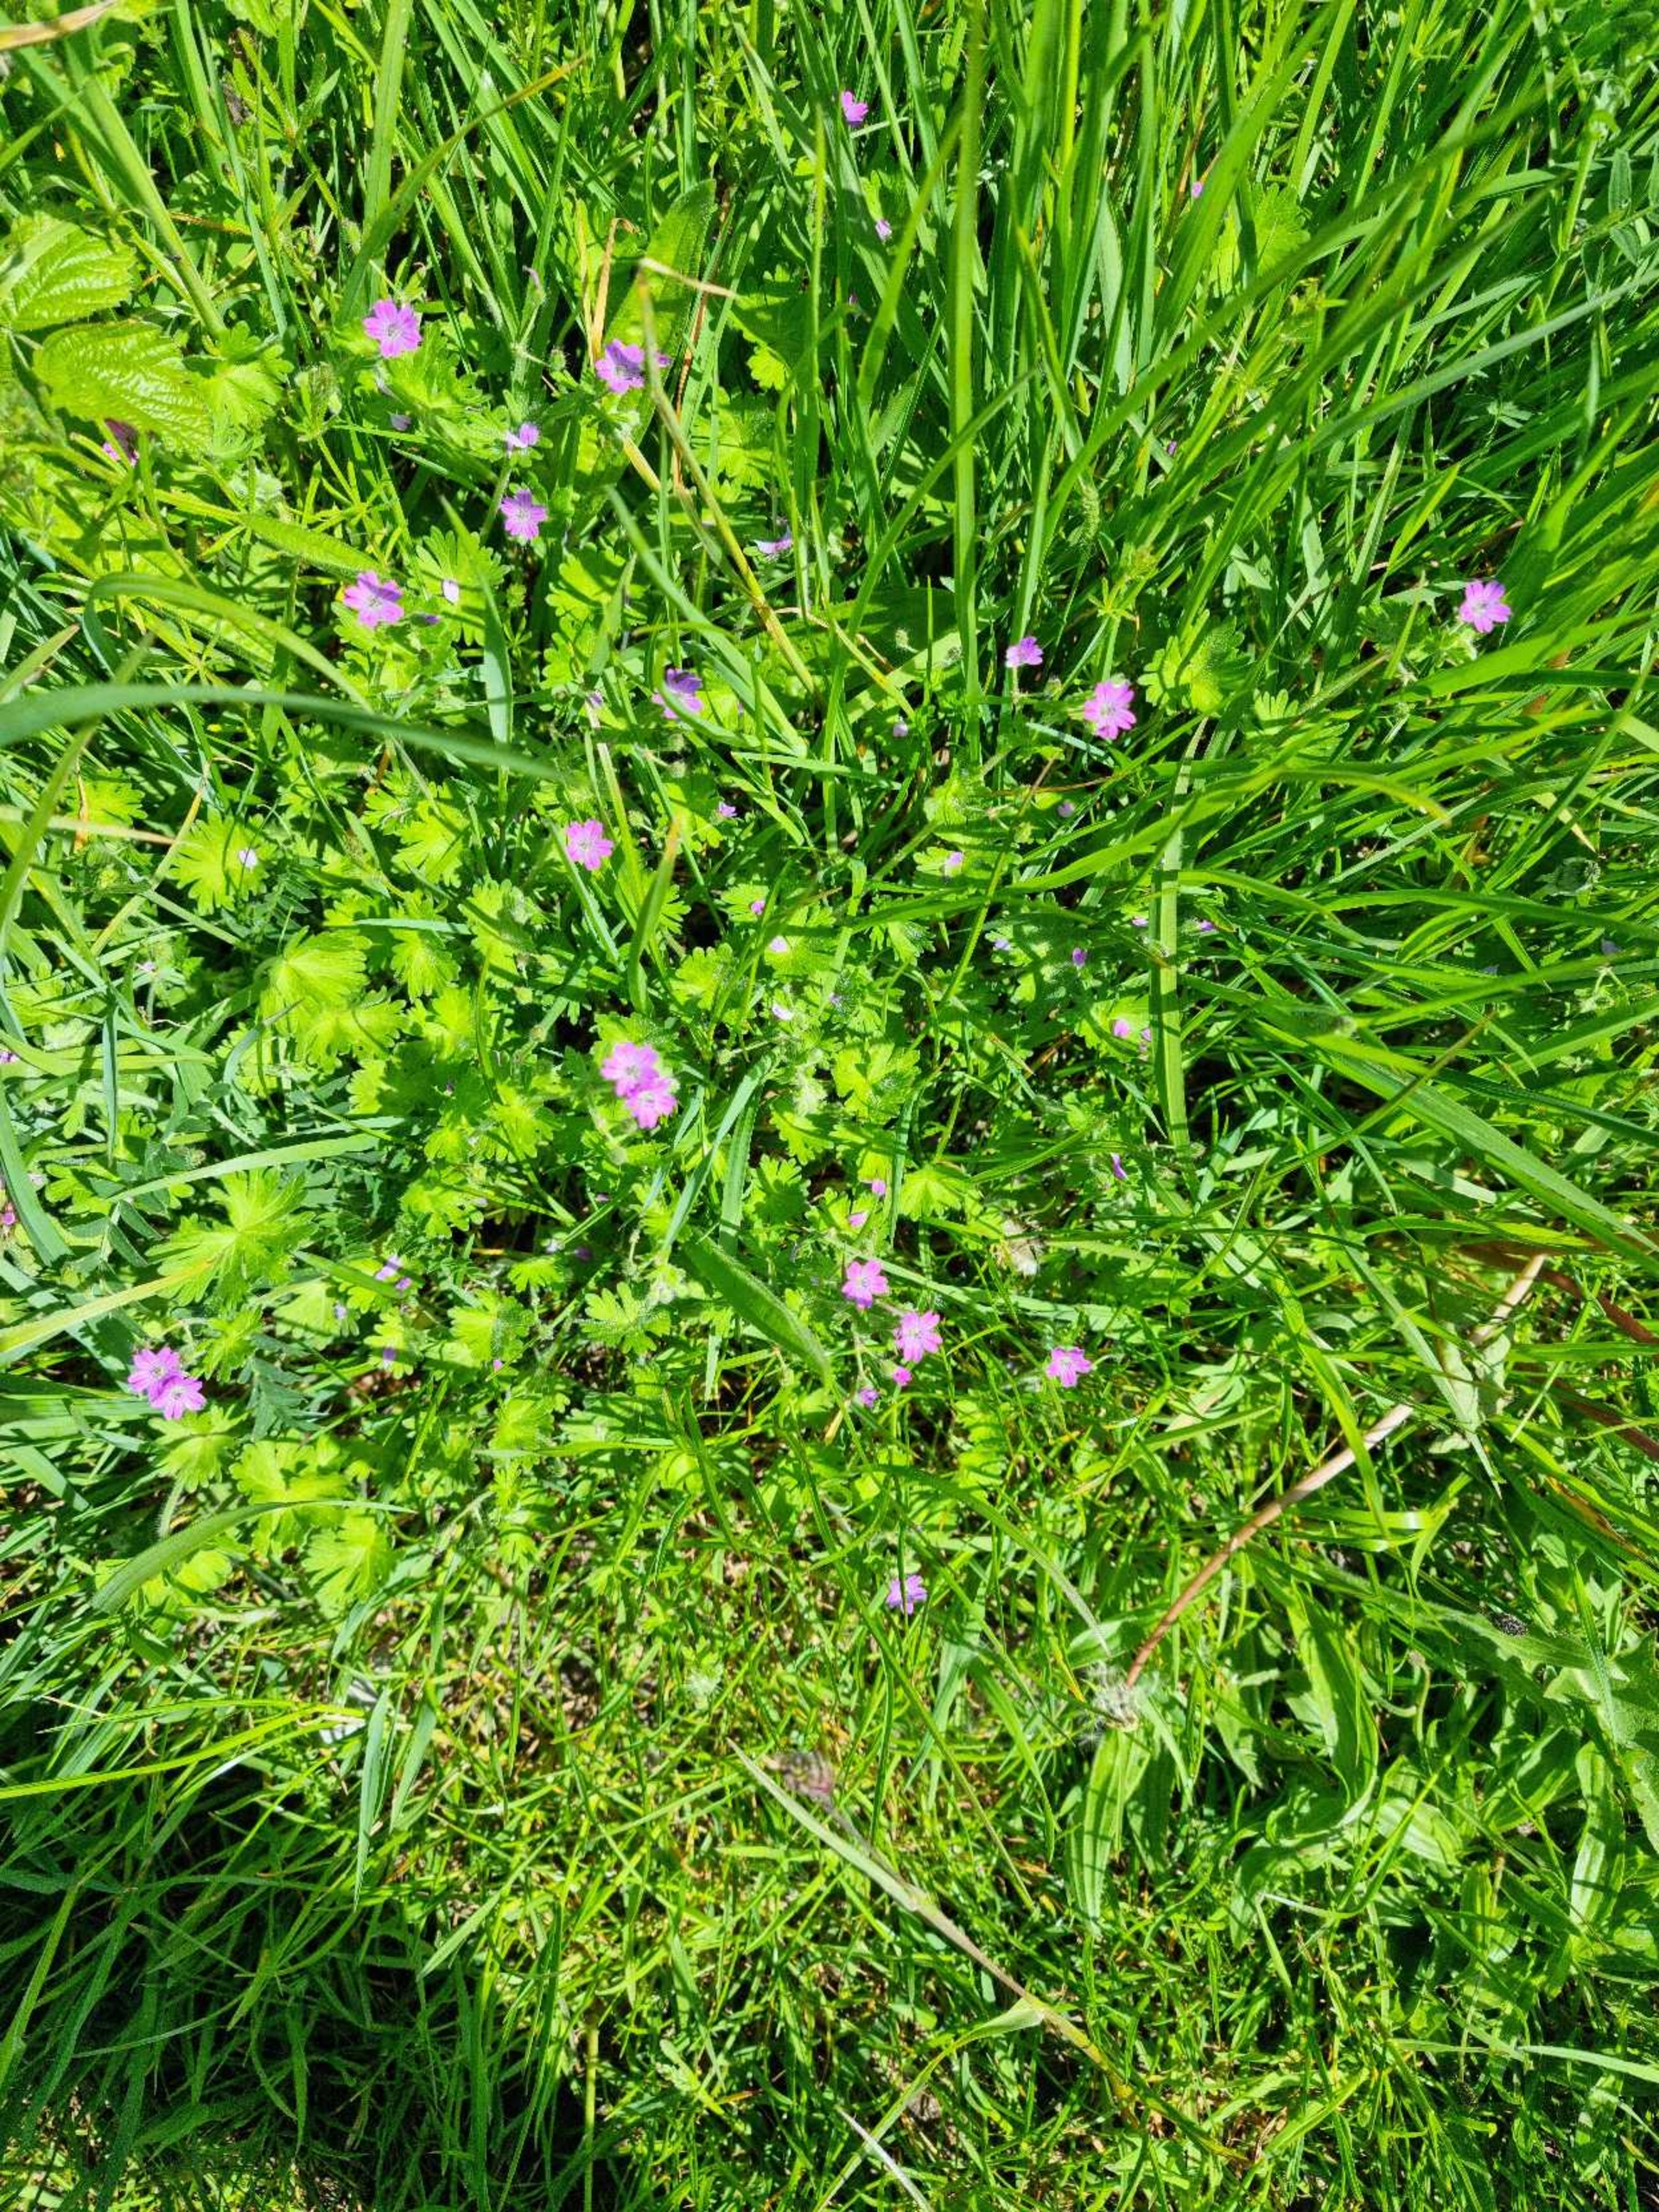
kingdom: Plantae
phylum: Tracheophyta
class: Magnoliopsida
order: Geraniales
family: Geraniaceae
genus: Geranium
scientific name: Geranium molle
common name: Blød storkenæb
